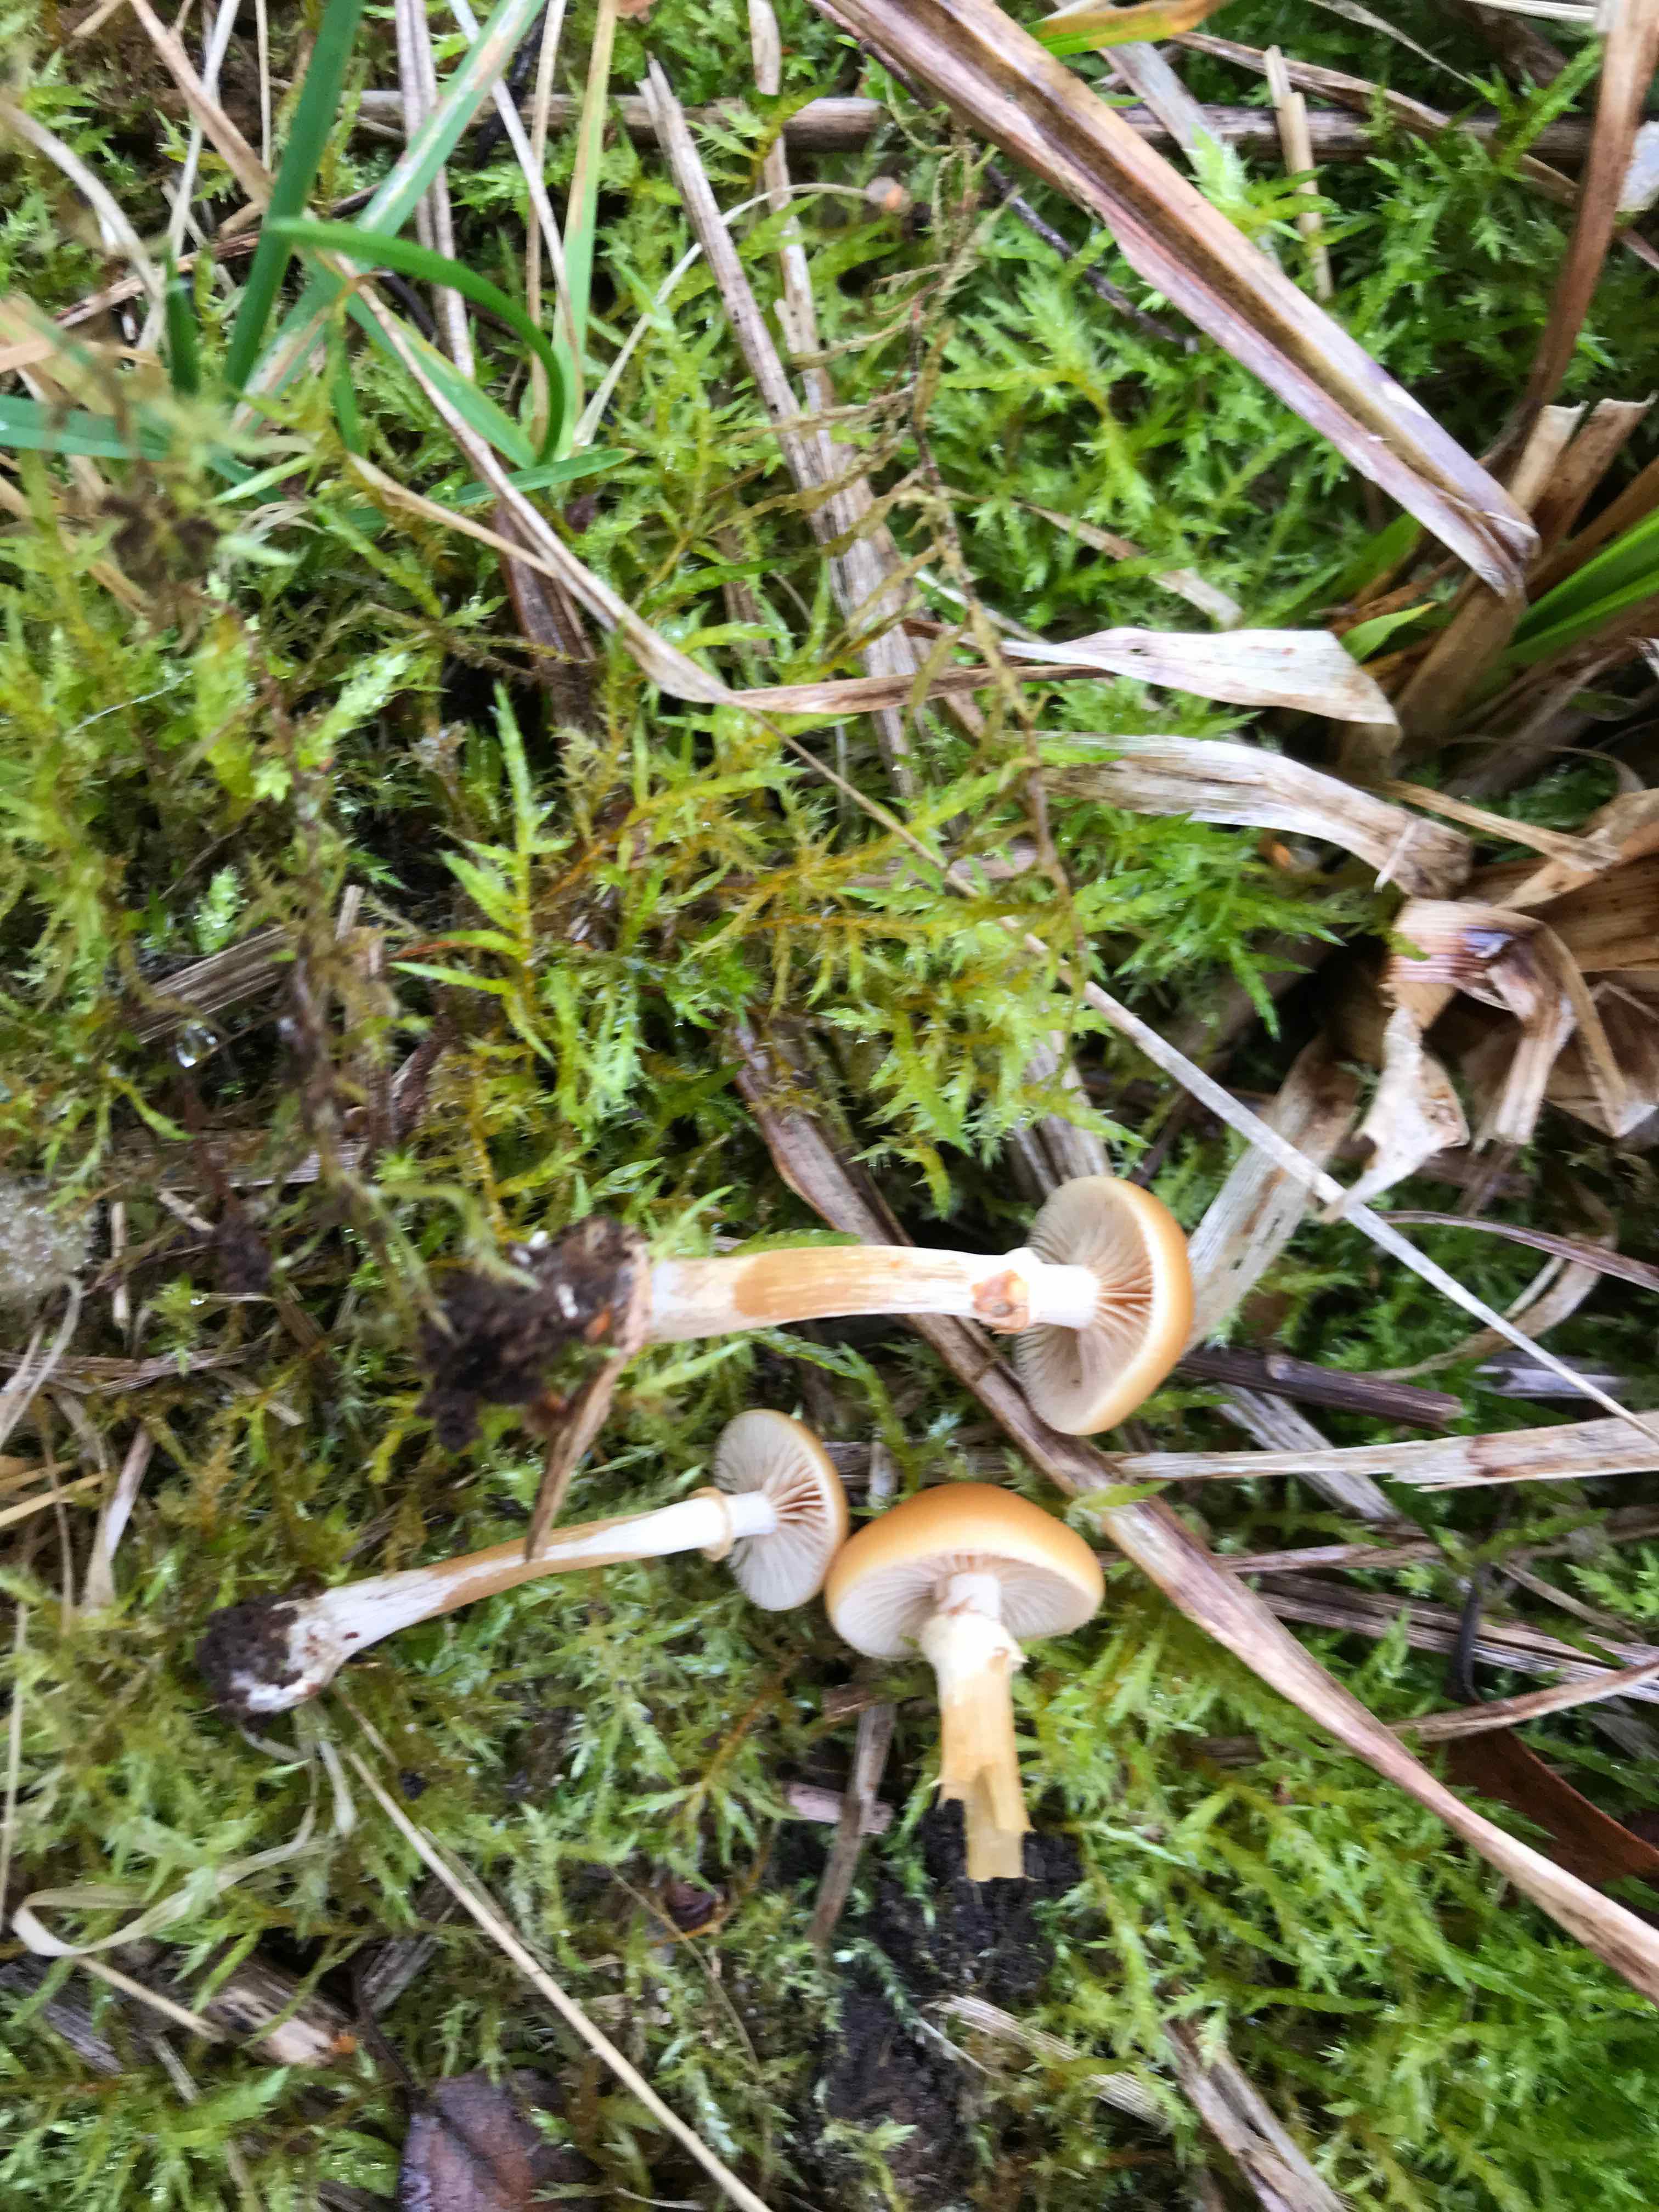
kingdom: Fungi
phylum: Basidiomycota
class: Agaricomycetes
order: Agaricales
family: Hymenogastraceae
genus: Galerina
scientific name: Galerina marginata
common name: randbæltet hjelmhat
